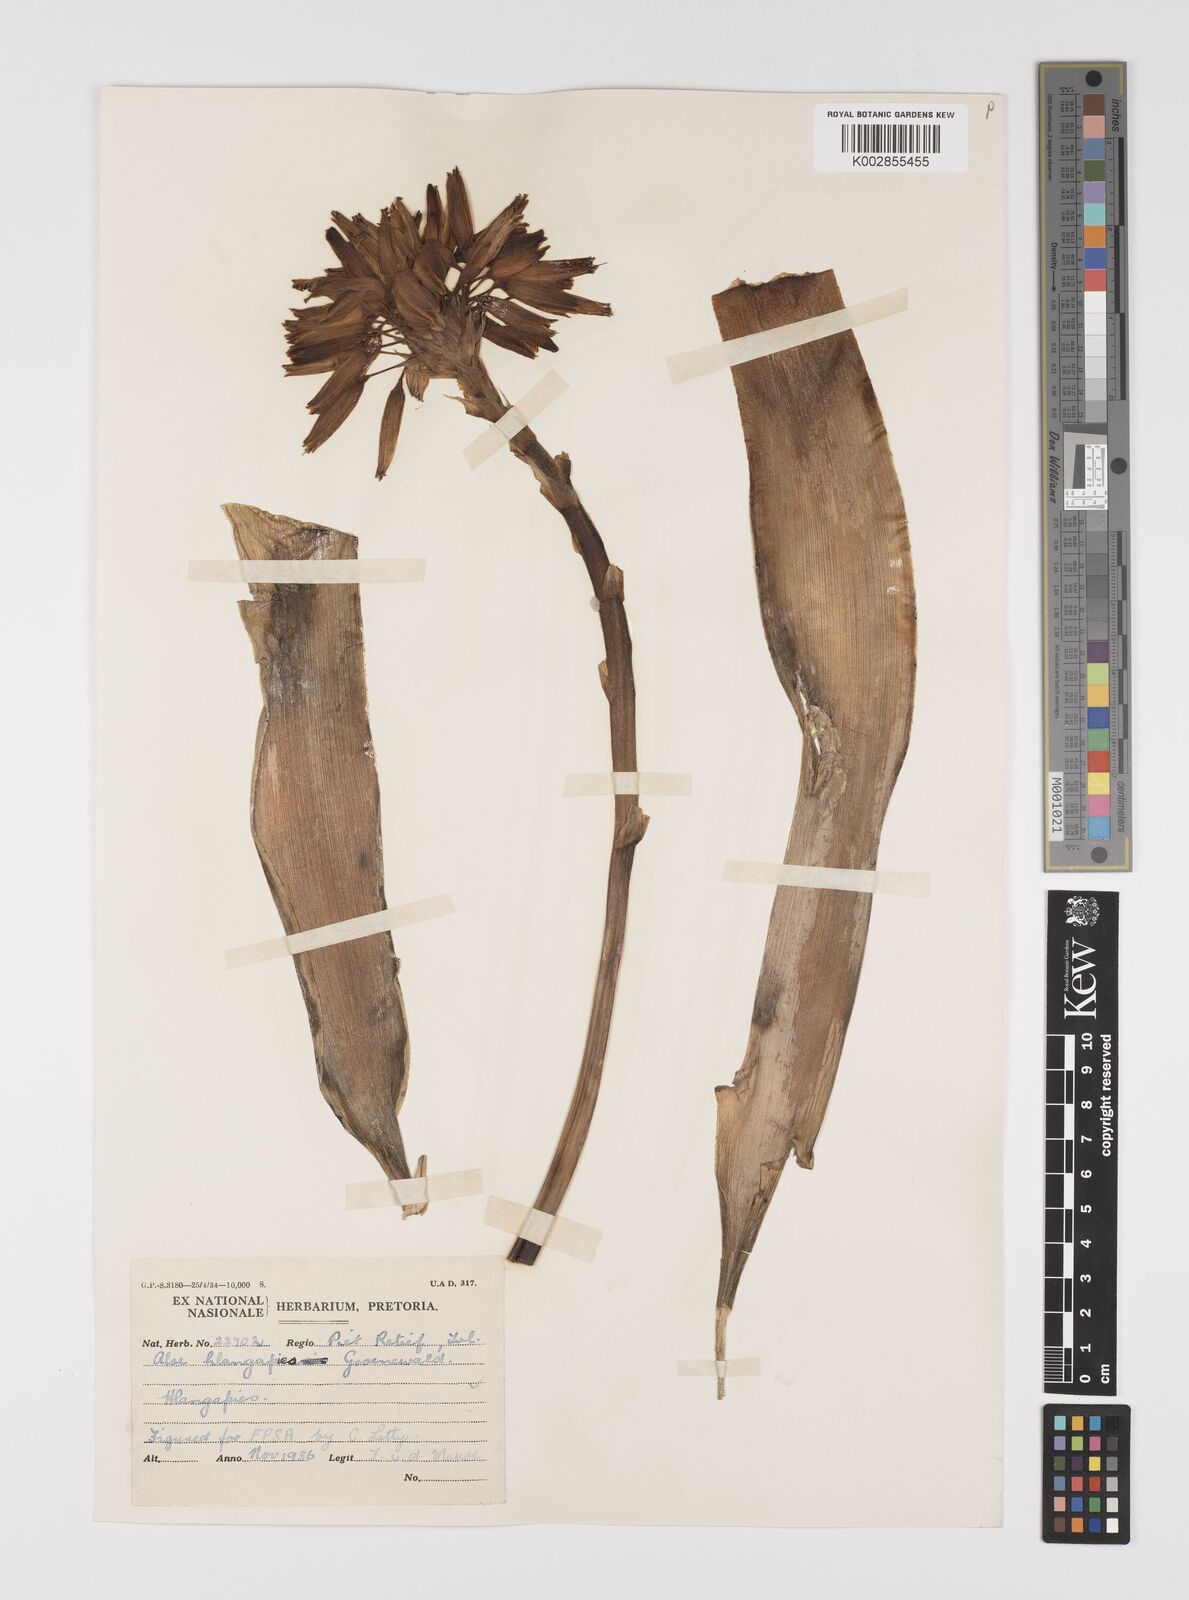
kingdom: Plantae
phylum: Tracheophyta
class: Liliopsida
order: Asparagales
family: Asphodelaceae
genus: Aloe
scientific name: Aloe hlangapies
